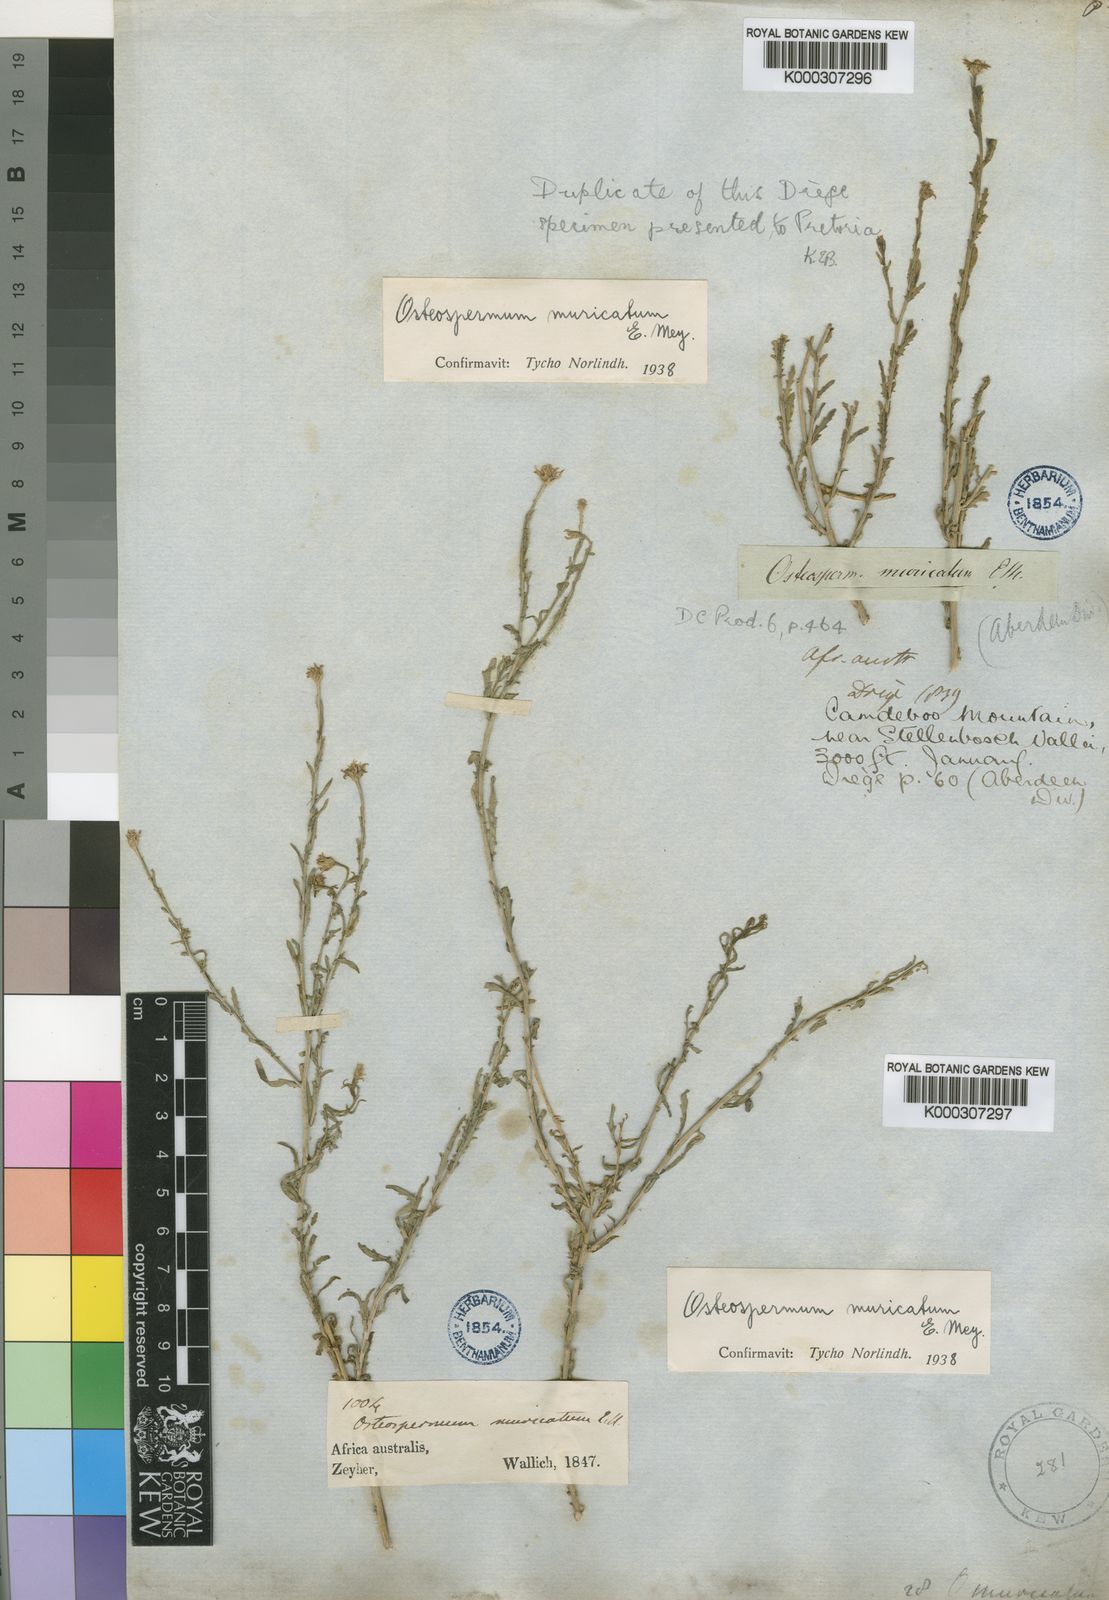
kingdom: Plantae
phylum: Tracheophyta
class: Magnoliopsida
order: Asterales
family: Asteraceae
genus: Osteospermum
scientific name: Osteospermum muricatum
